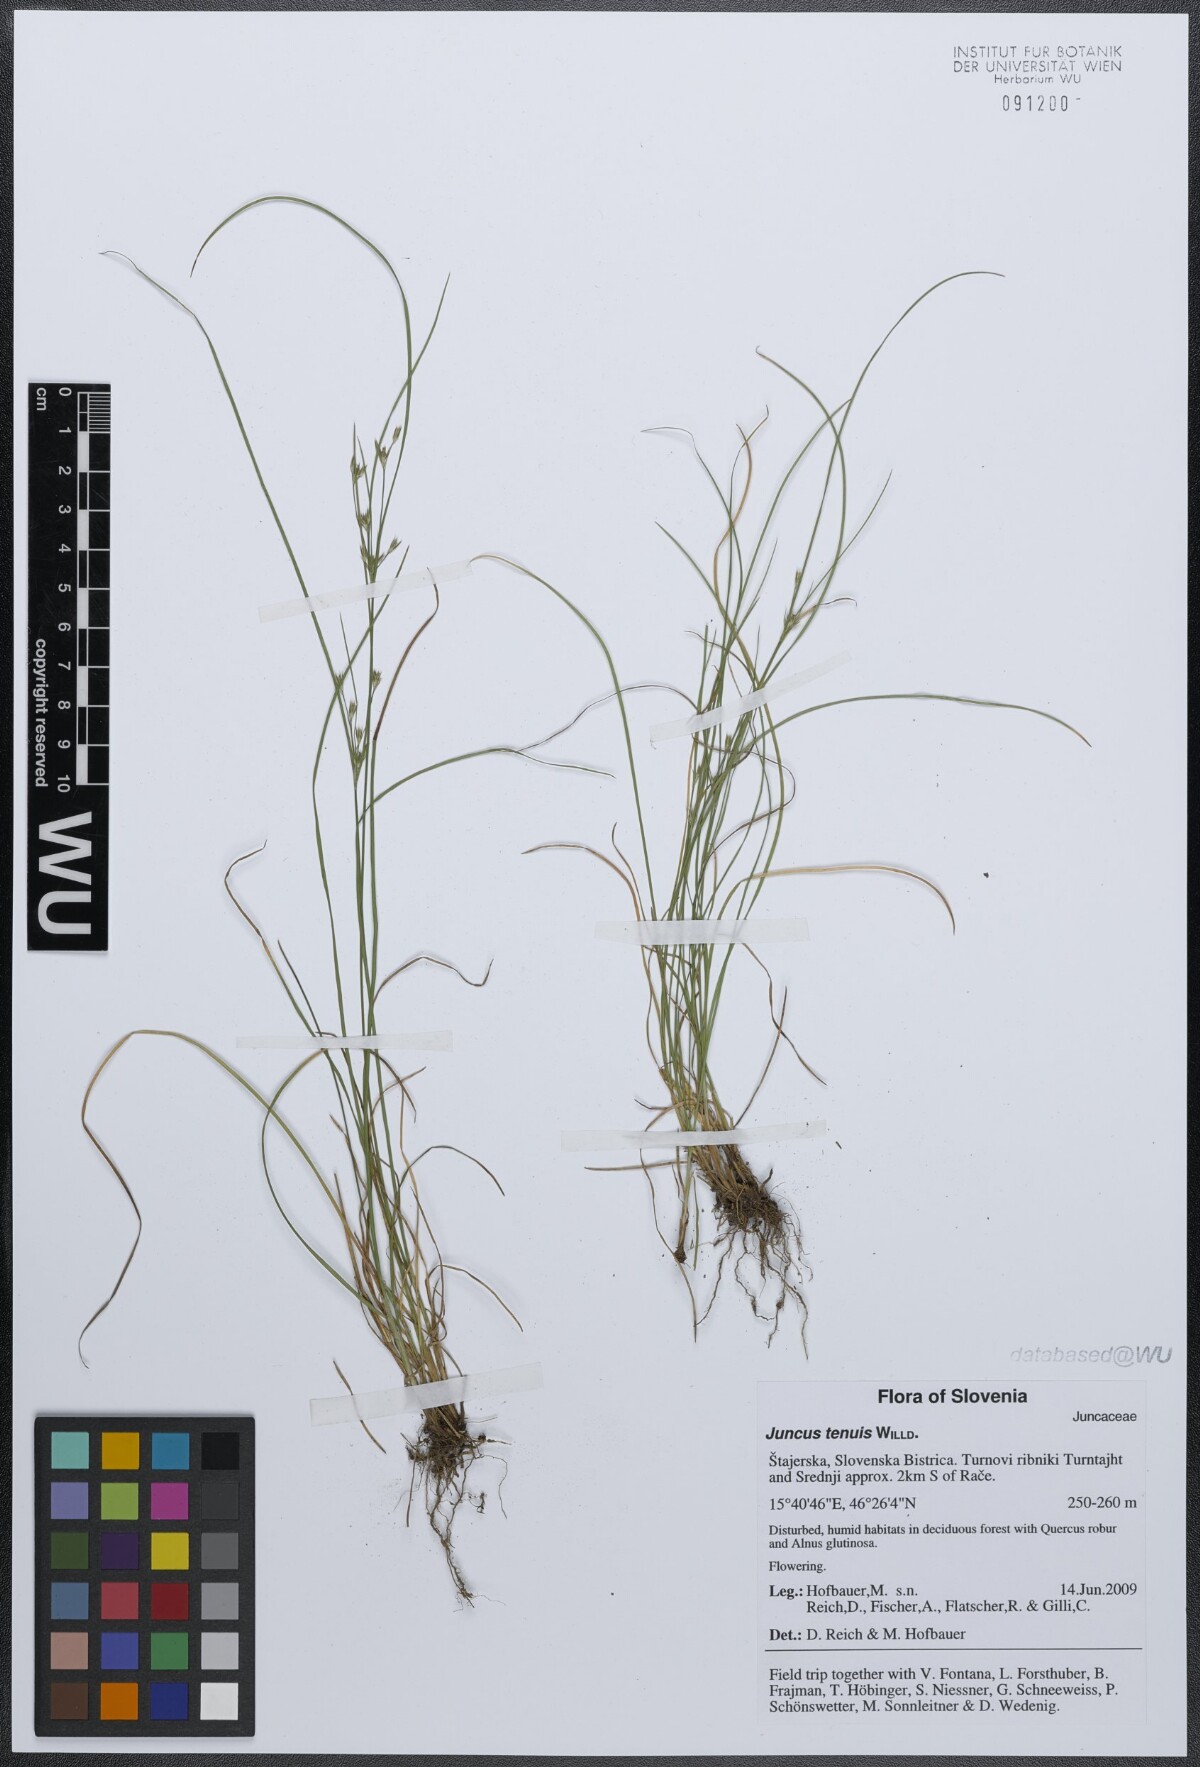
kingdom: Plantae
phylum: Tracheophyta
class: Liliopsida
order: Poales
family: Juncaceae
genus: Juncus
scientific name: Juncus tenuis
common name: Slender rush
